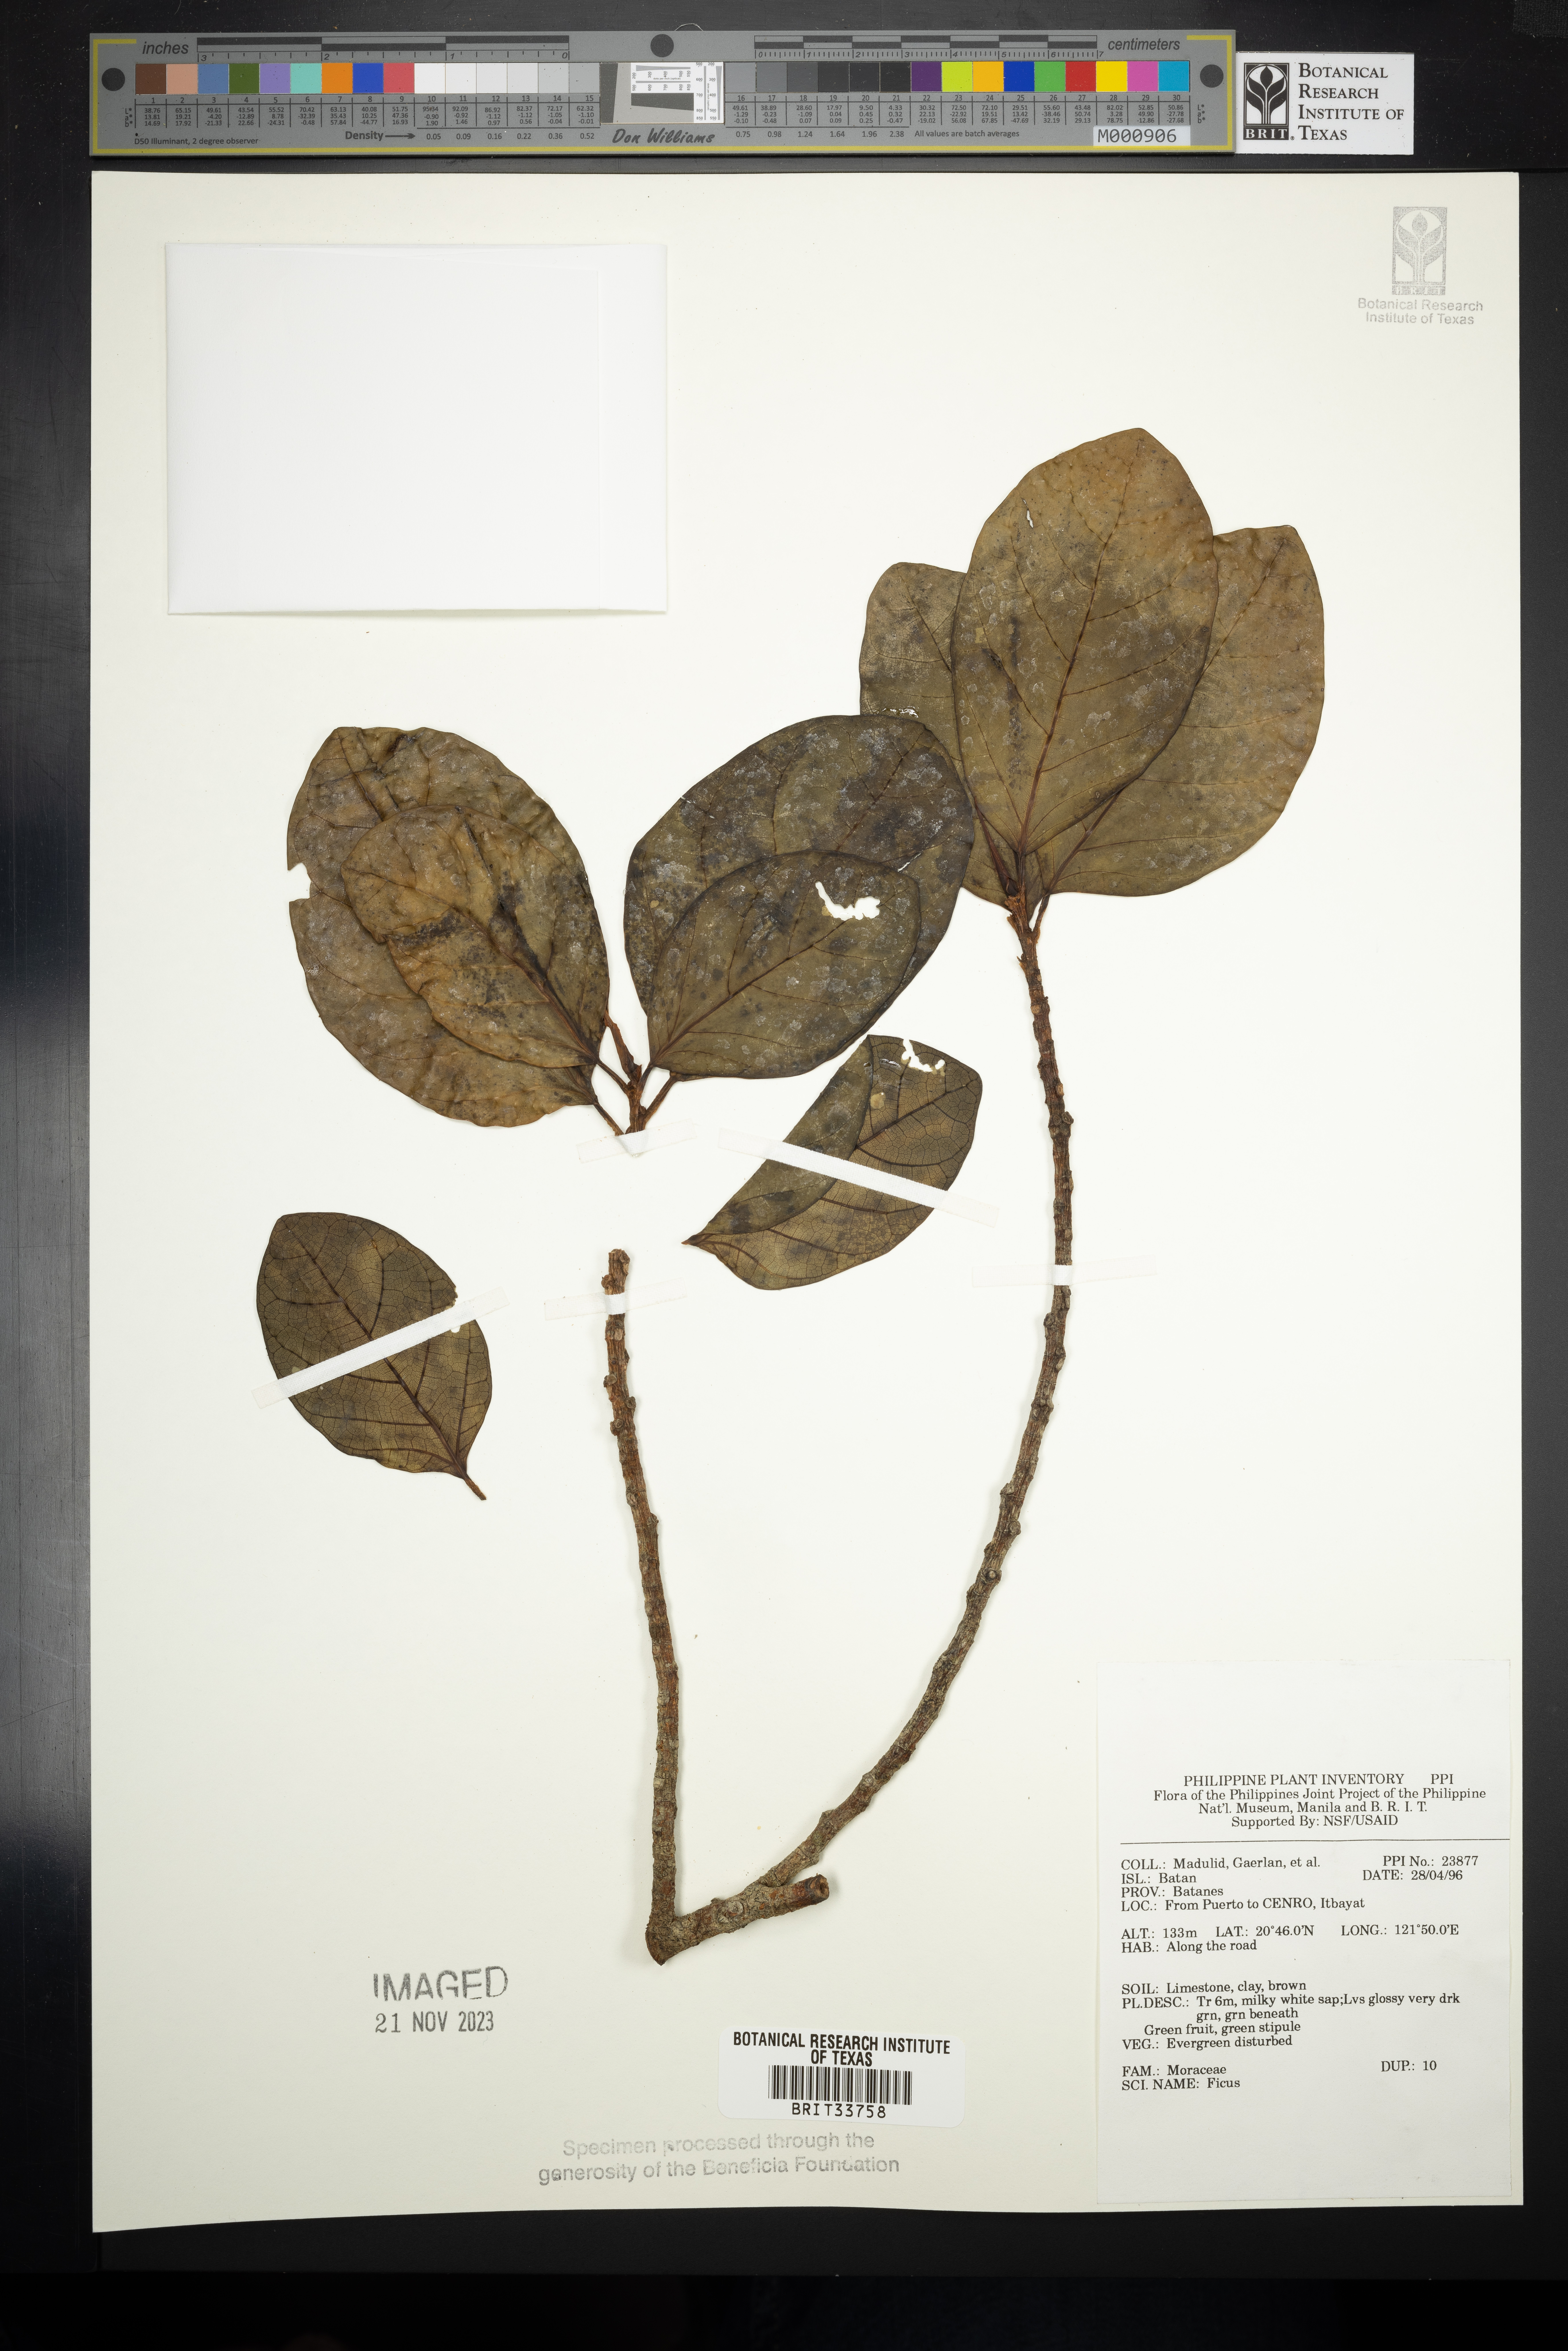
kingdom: Plantae
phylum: Tracheophyta
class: Magnoliopsida
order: Rosales
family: Moraceae
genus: Ficus
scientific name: Ficus
